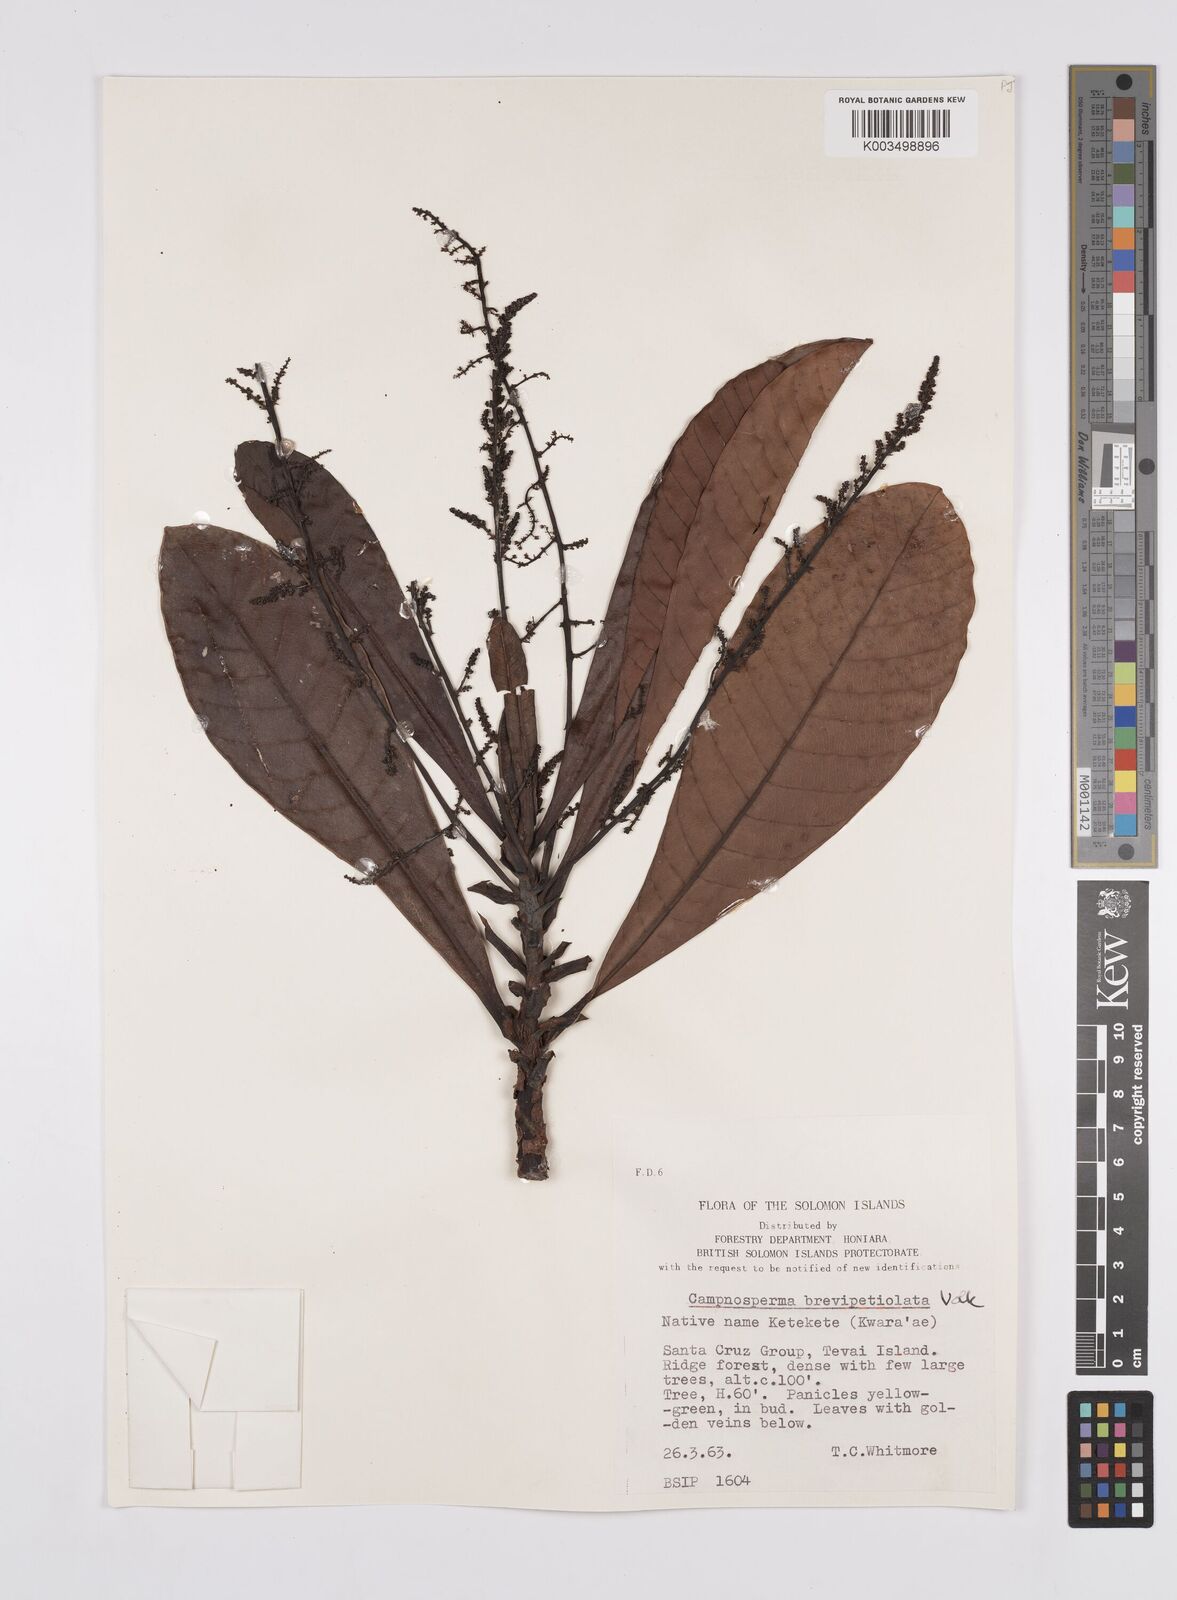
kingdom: Plantae
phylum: Tracheophyta
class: Magnoliopsida
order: Sapindales
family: Anacardiaceae
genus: Campnosperma
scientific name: Campnosperma brevipetiolatum
